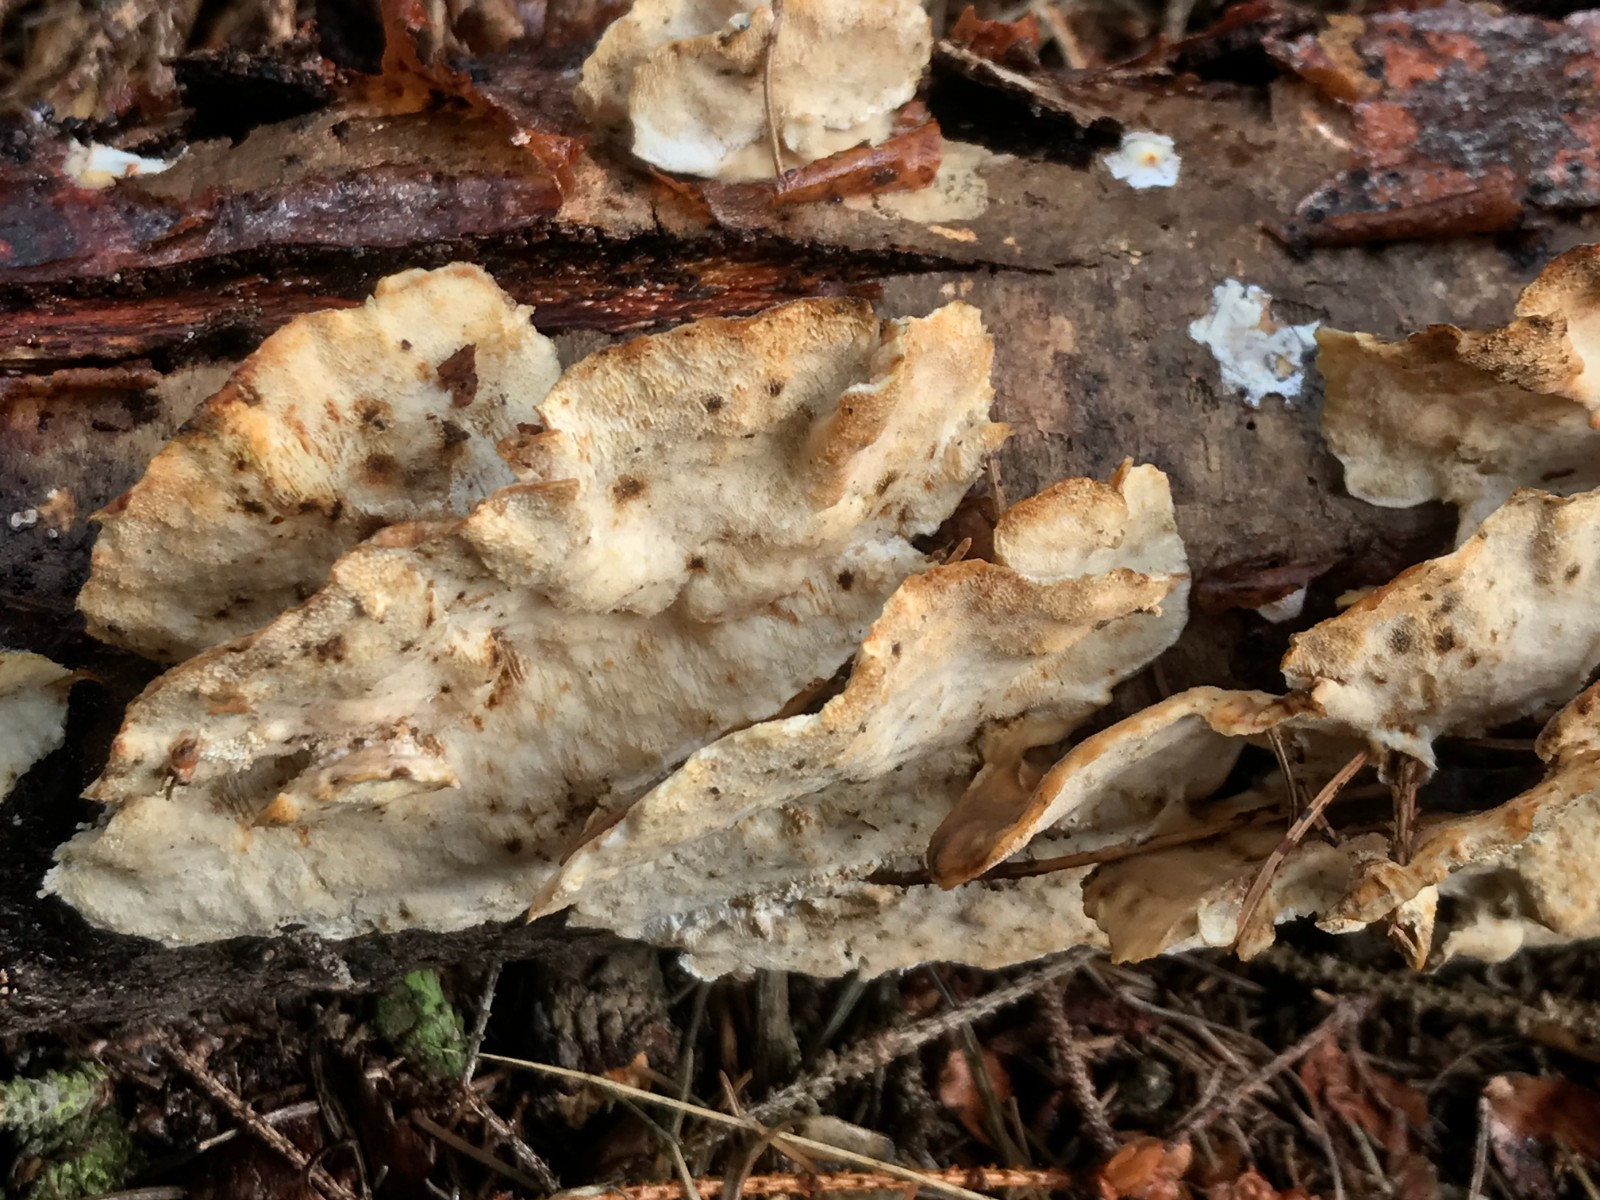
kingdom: Fungi
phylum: Basidiomycota
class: Agaricomycetes
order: Polyporales
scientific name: Polyporales
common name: poresvampordenen
